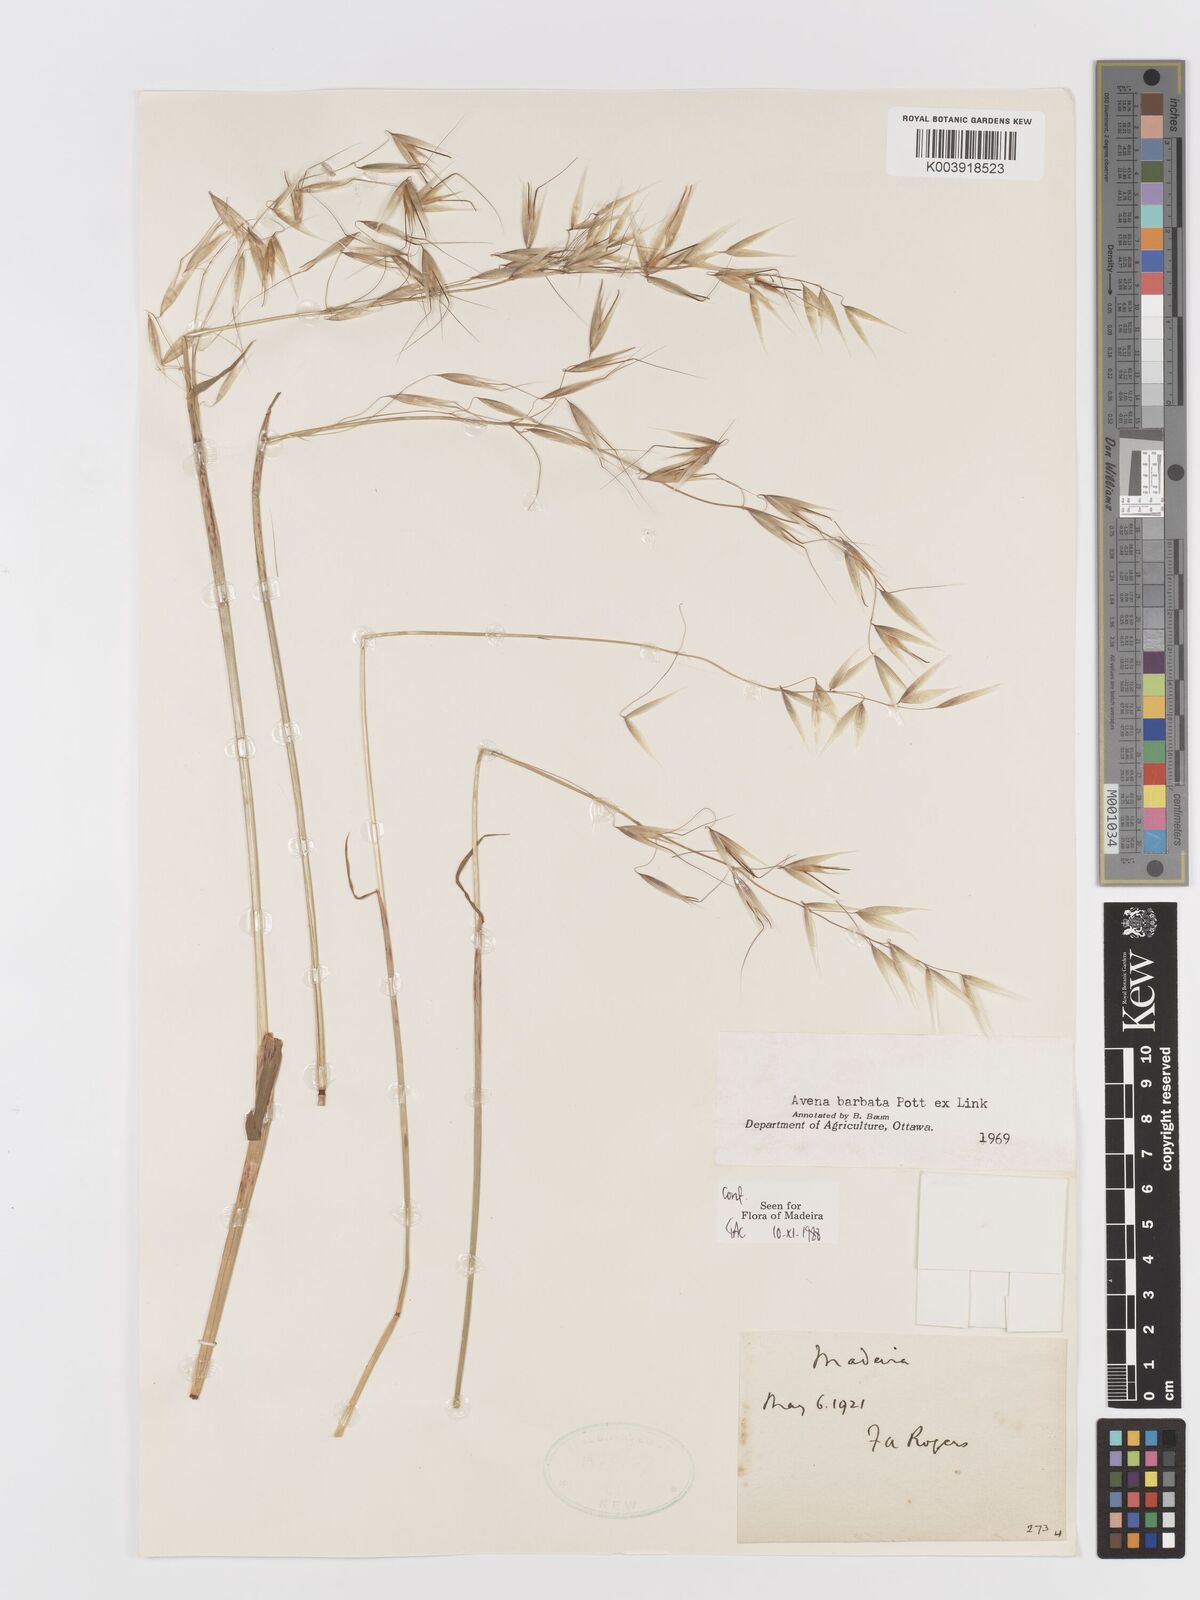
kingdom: Plantae
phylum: Tracheophyta
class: Liliopsida
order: Poales
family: Poaceae
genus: Avena
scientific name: Avena
